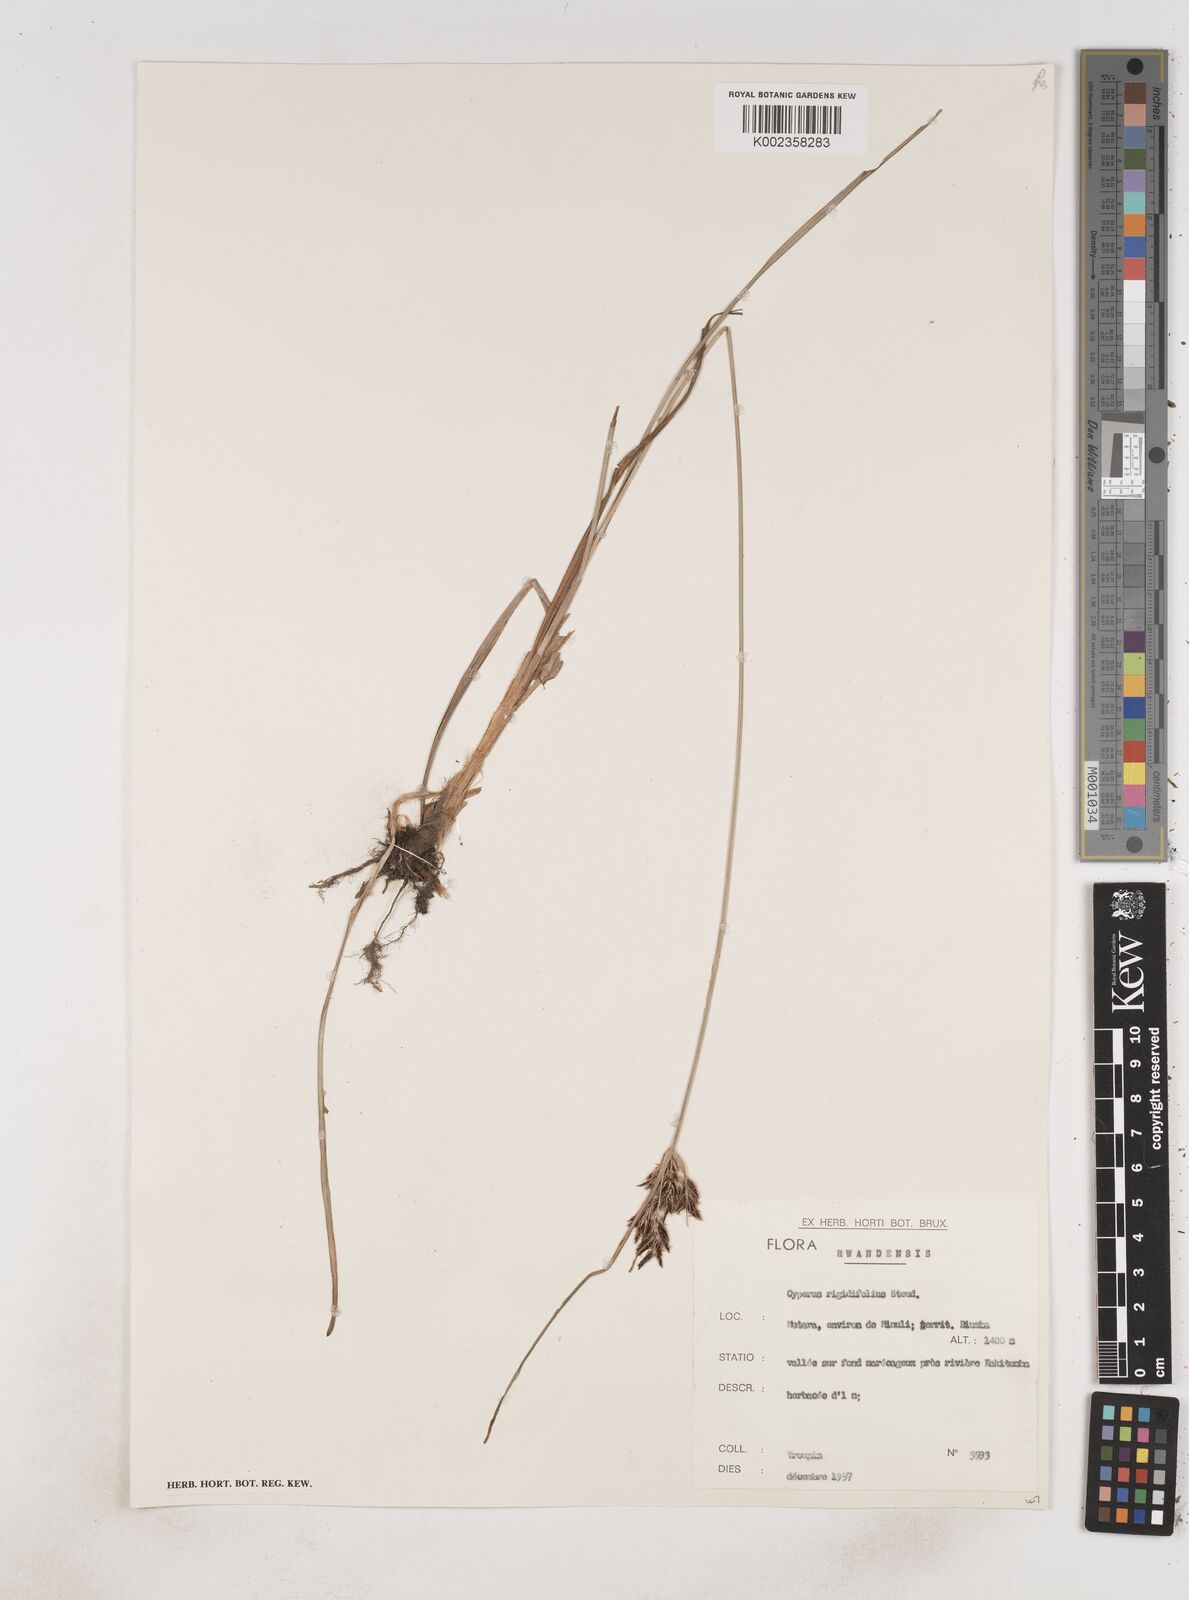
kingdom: Plantae
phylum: Tracheophyta
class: Liliopsida
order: Poales
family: Cyperaceae
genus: Cyperus
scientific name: Cyperus rigidifolius
